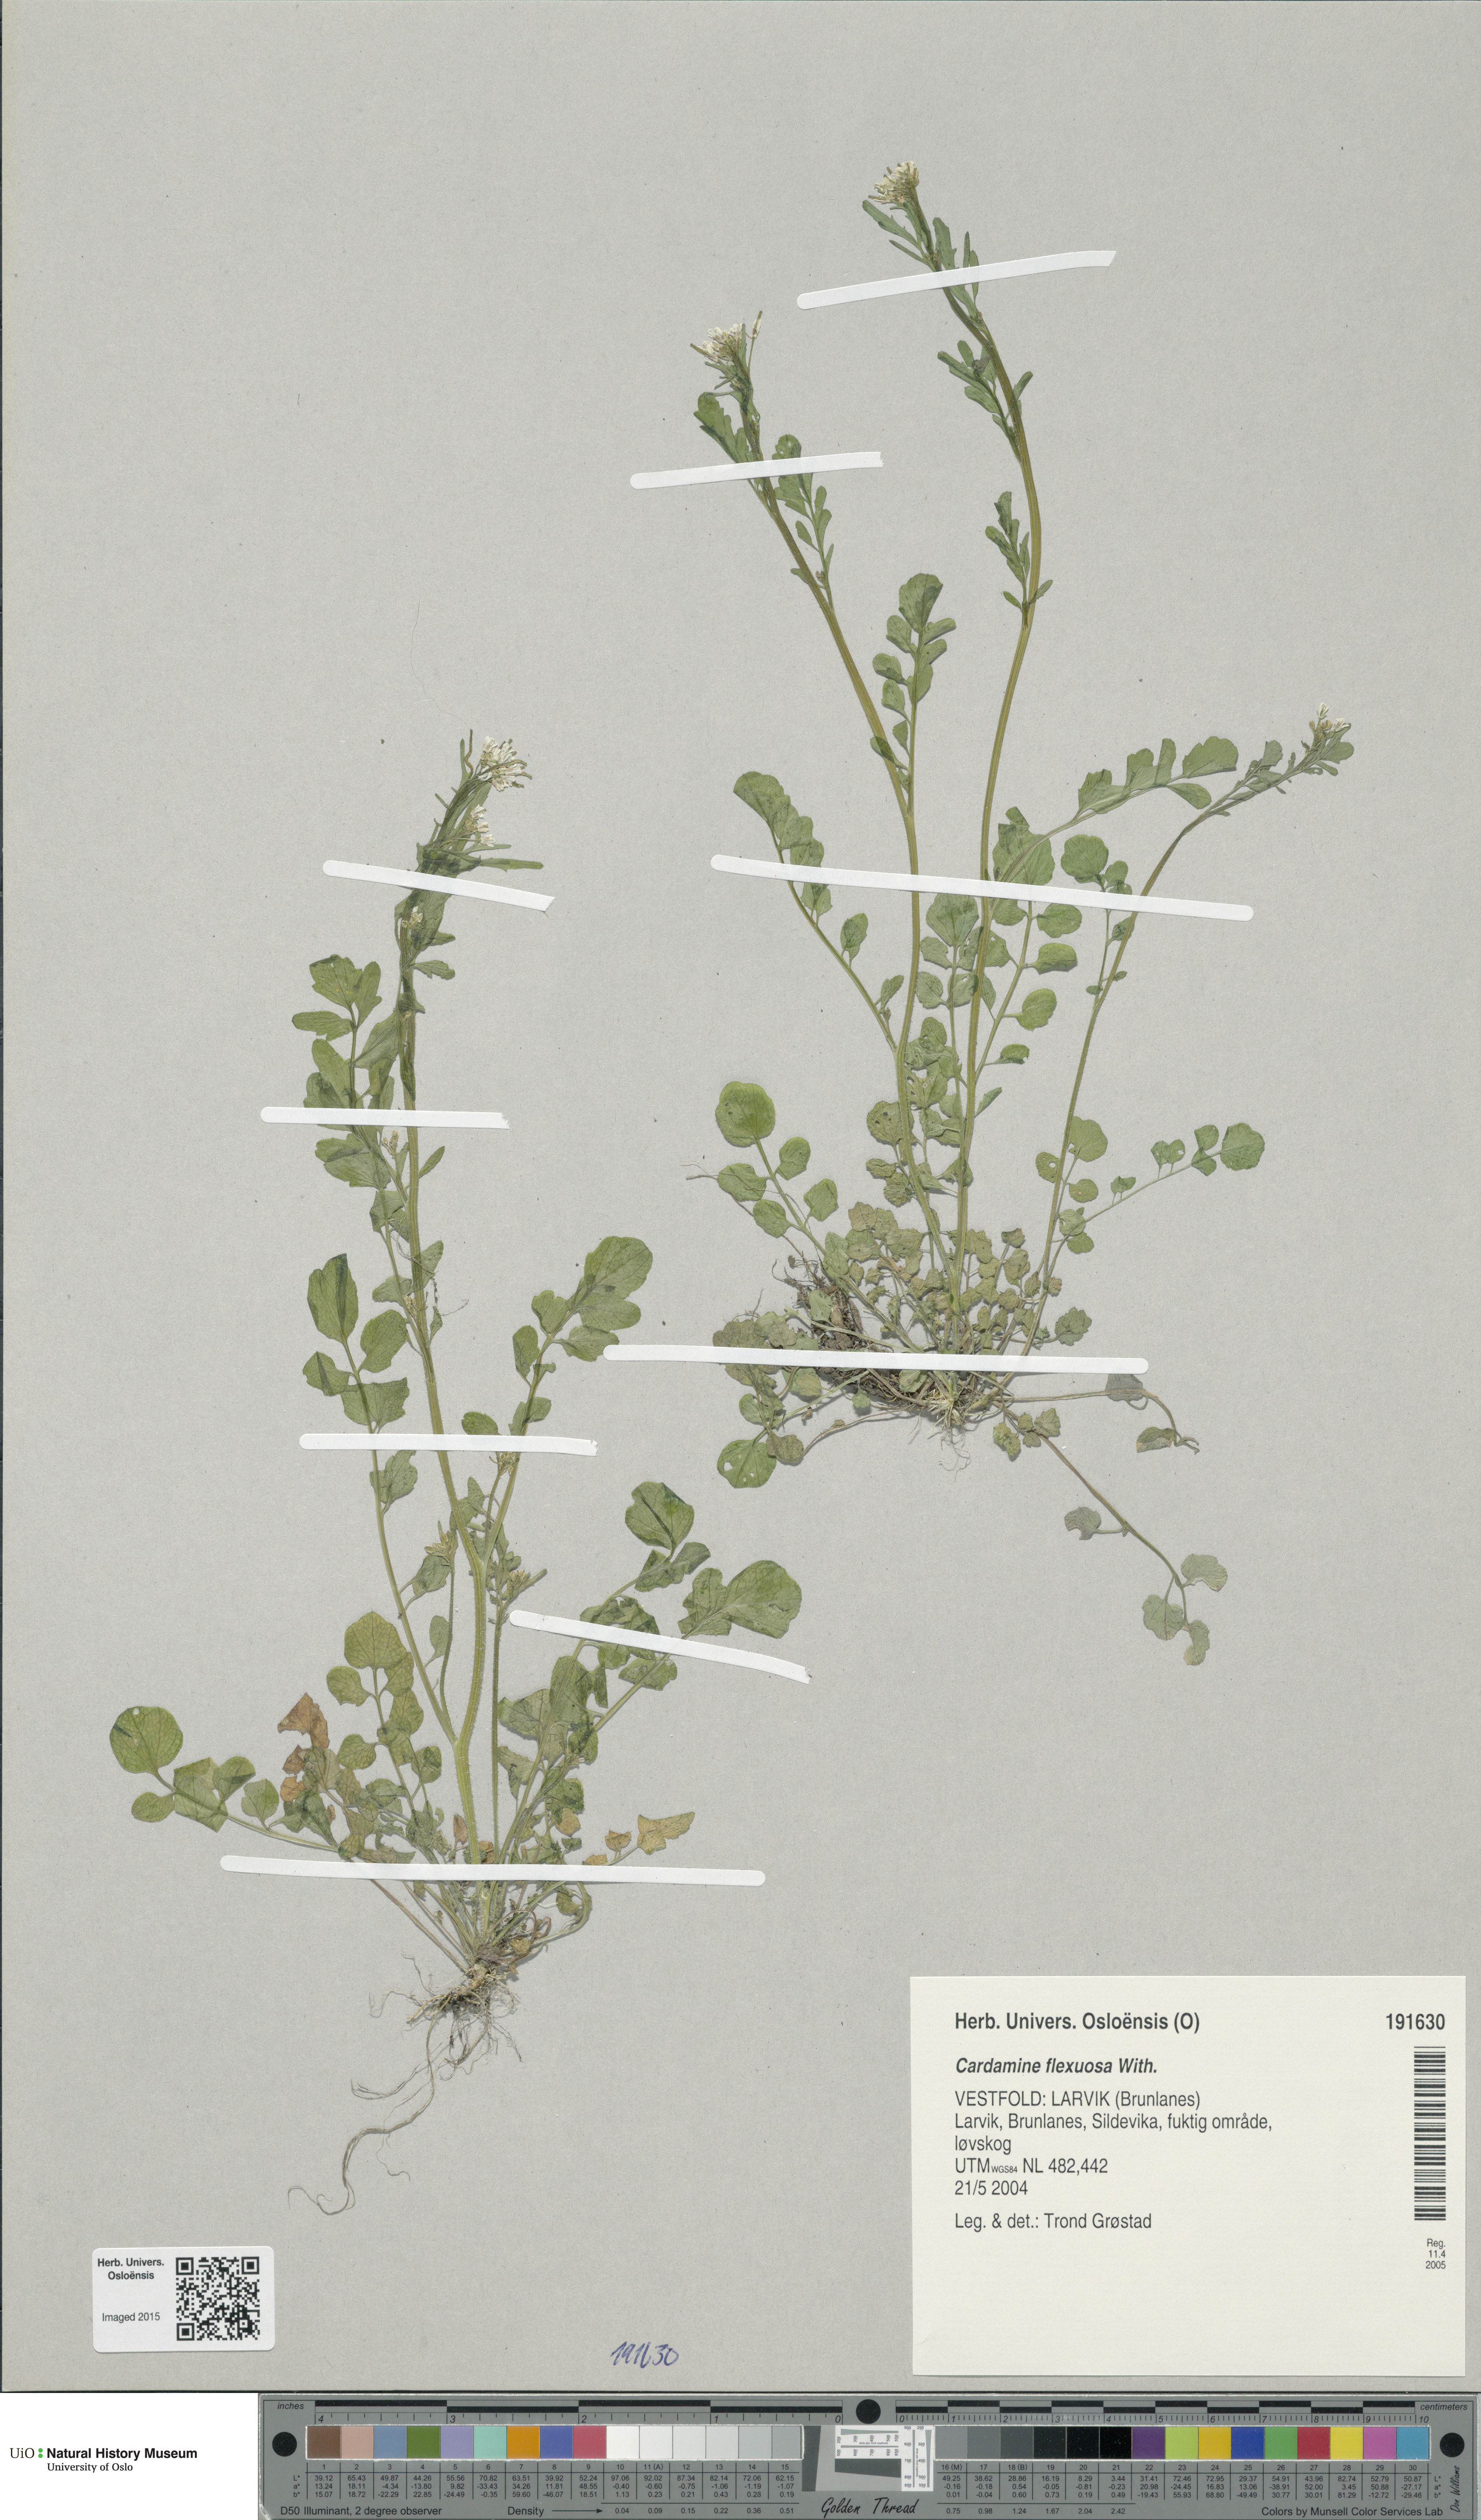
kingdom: Plantae
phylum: Tracheophyta
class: Magnoliopsida
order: Brassicales
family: Brassicaceae
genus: Cardamine
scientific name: Cardamine flexuosa
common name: Woodland bittercress
